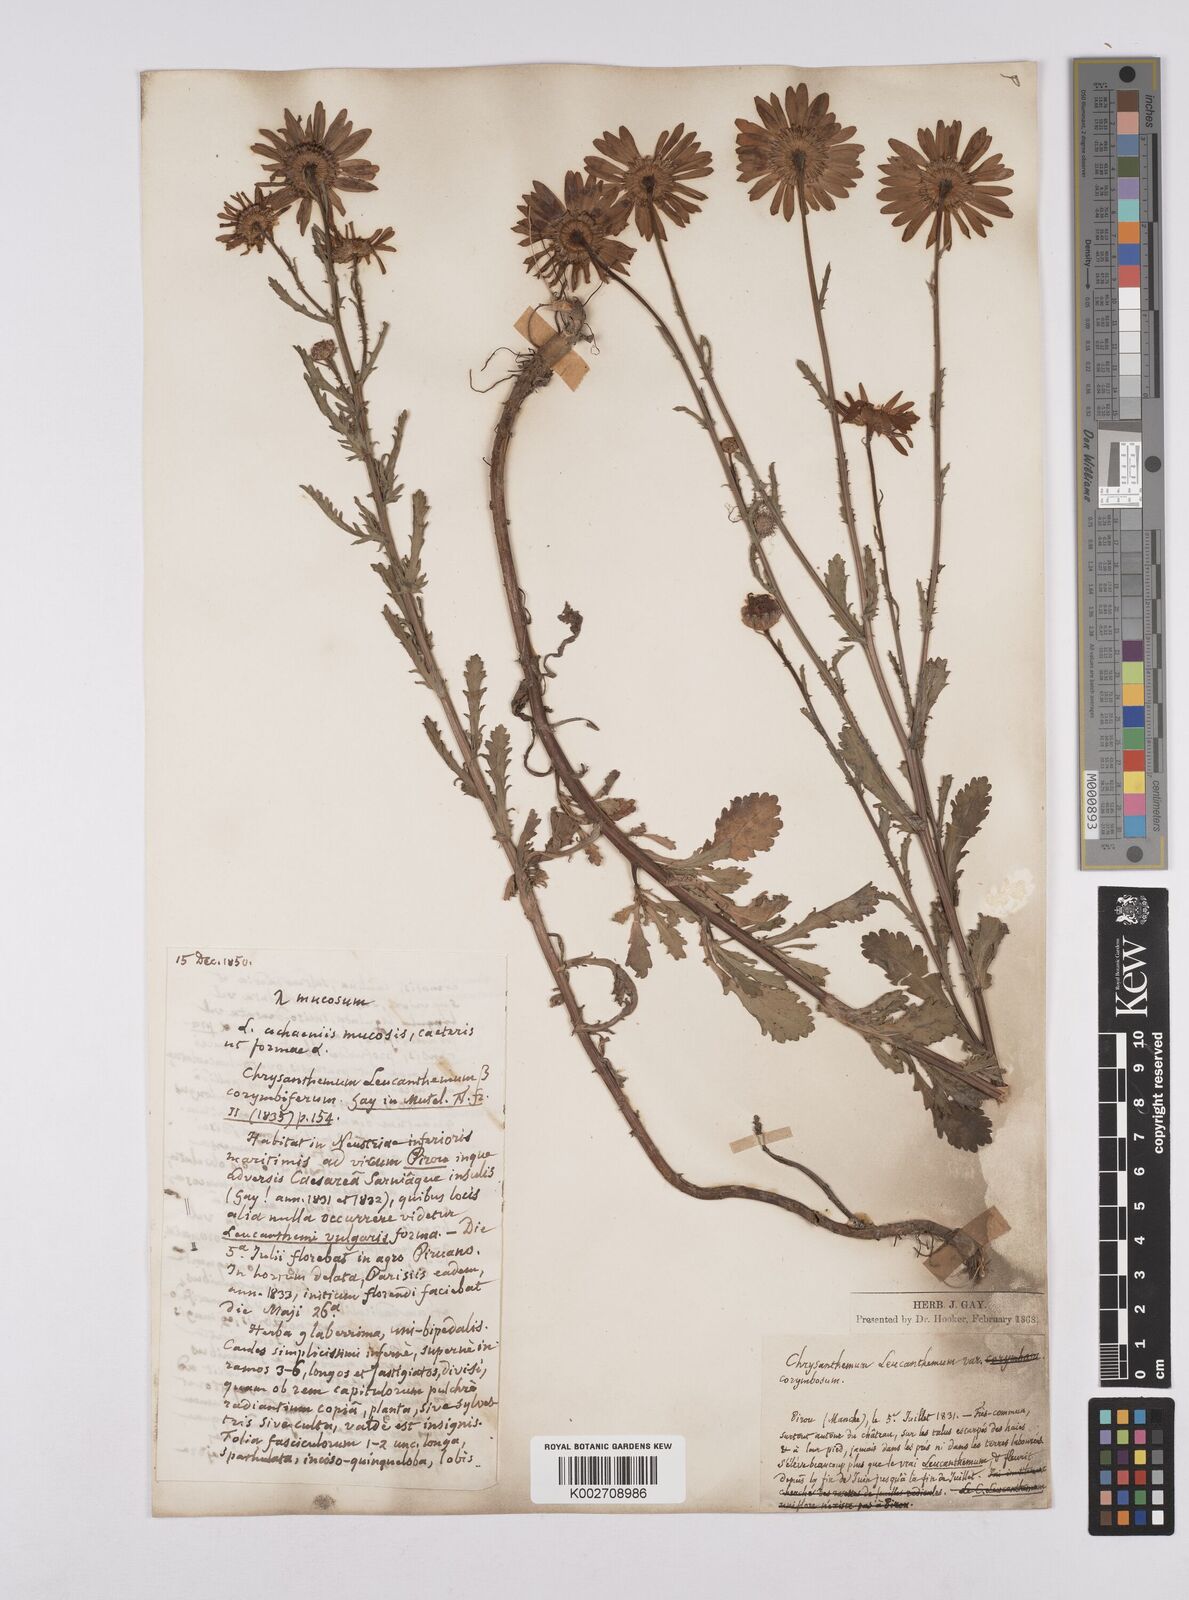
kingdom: Plantae
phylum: Tracheophyta
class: Magnoliopsida
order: Asterales
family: Asteraceae
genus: Leucanthemum
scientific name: Leucanthemum vulgare
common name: Oxeye daisy
